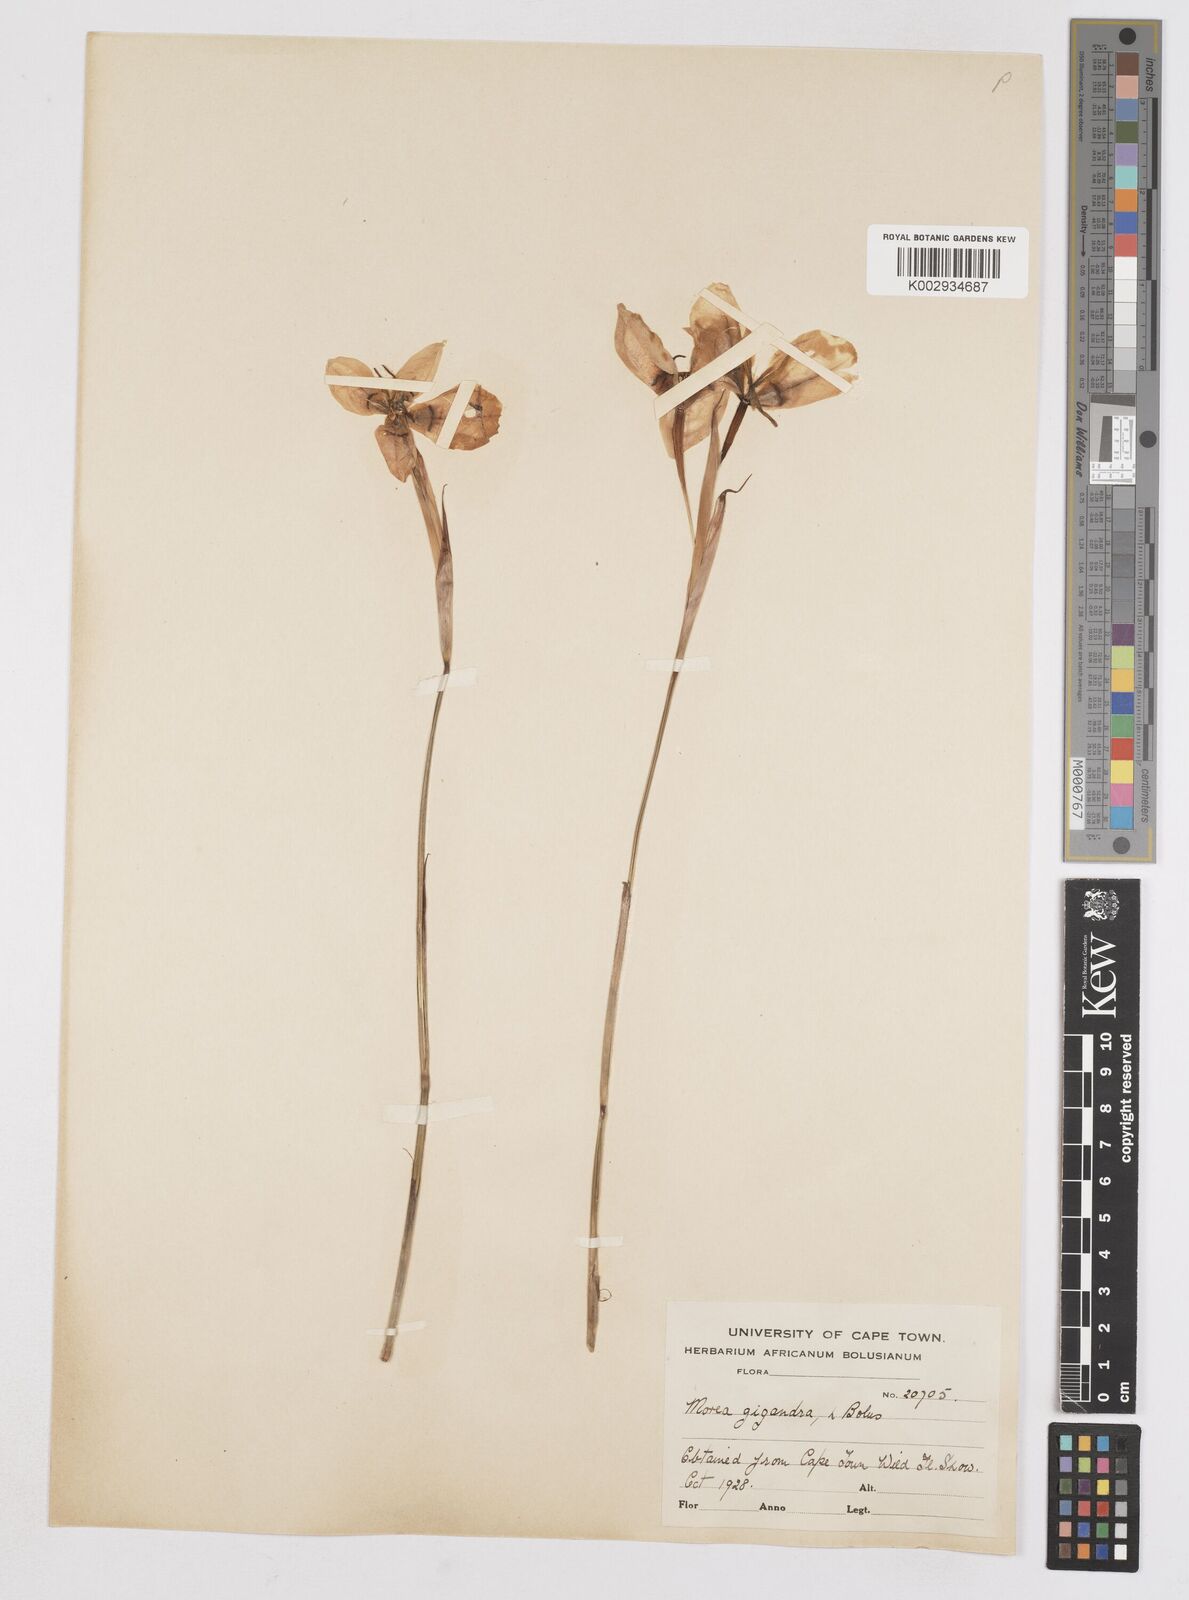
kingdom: Plantae
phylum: Tracheophyta
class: Liliopsida
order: Asparagales
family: Iridaceae
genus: Moraea
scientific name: Moraea gigandra
